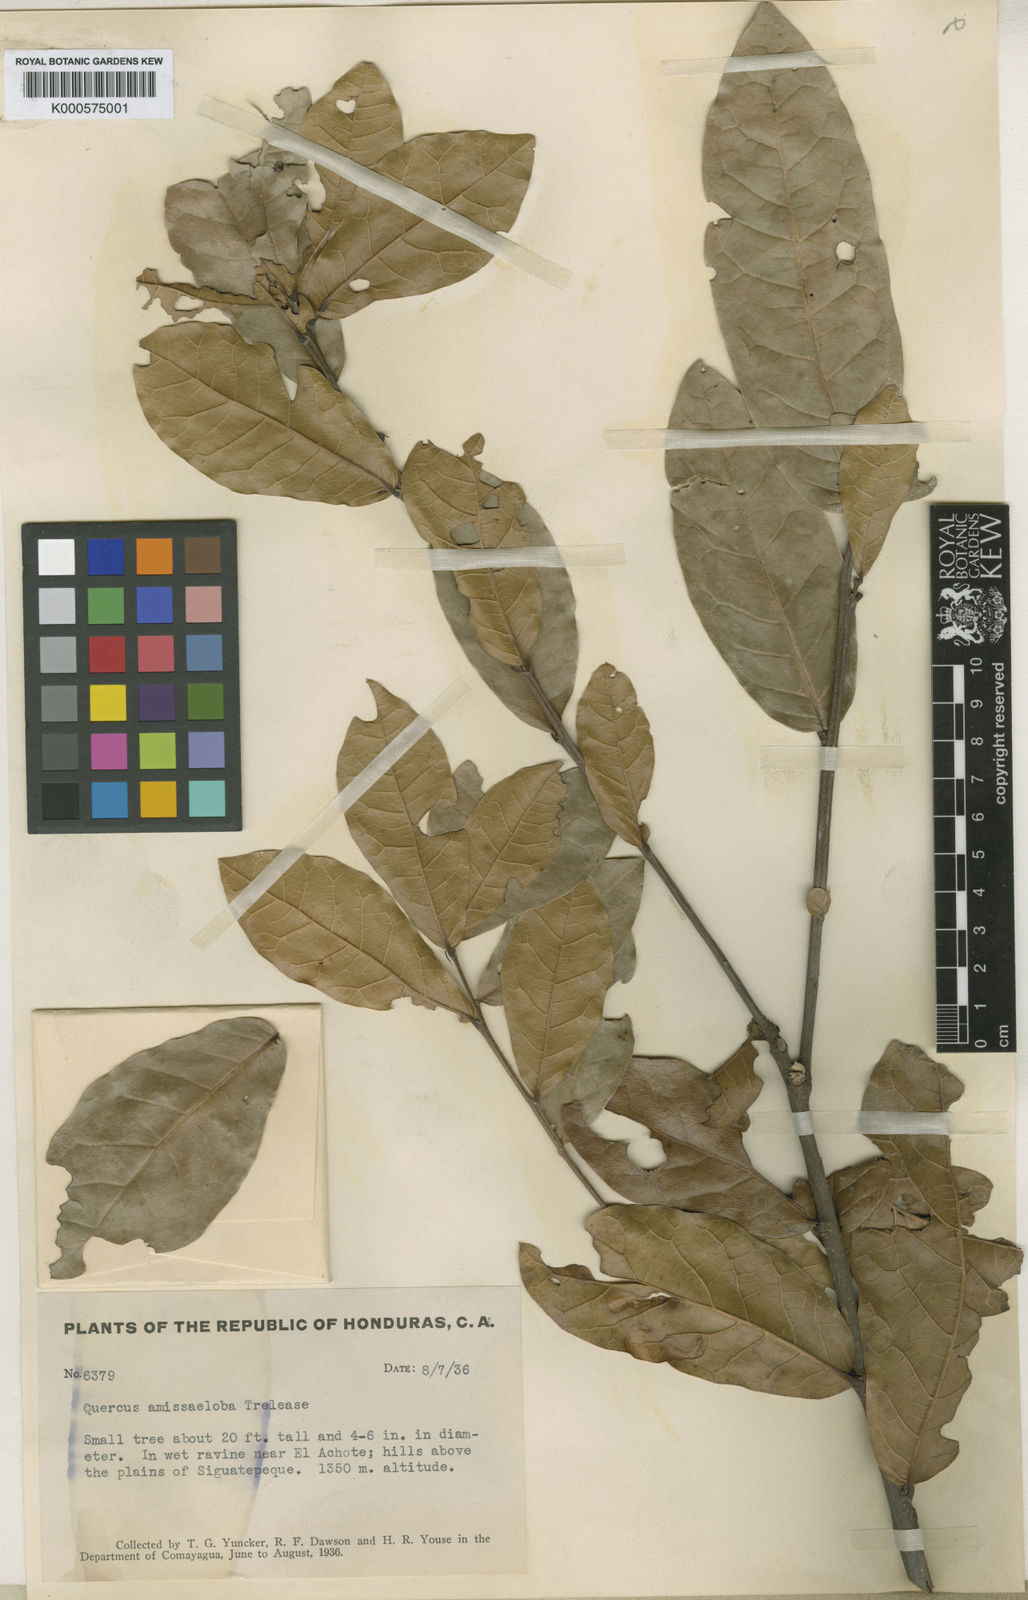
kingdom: Plantae
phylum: Tracheophyta
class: Magnoliopsida
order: Fagales
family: Fagaceae
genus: Quercus
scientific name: Quercus charcasana
